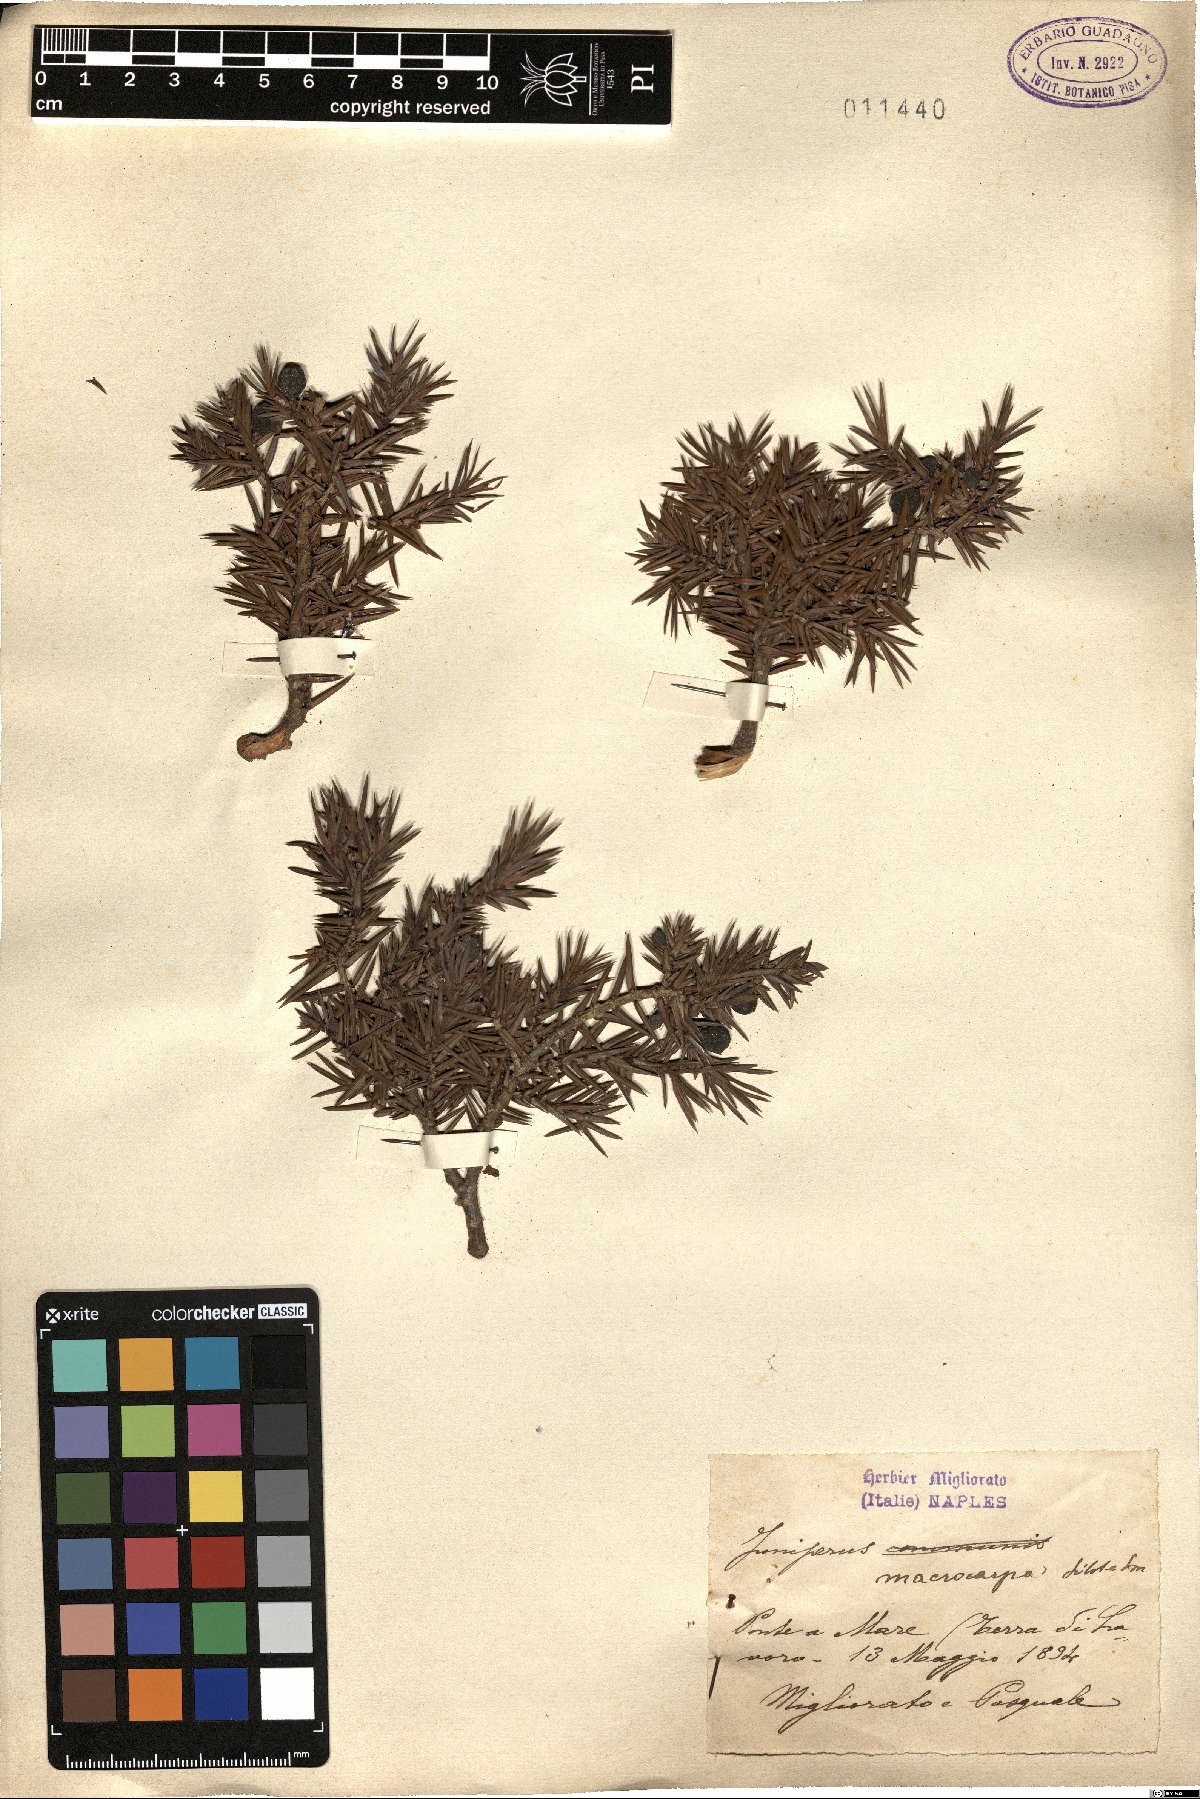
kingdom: Plantae
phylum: Tracheophyta
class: Pinopsida
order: Pinales
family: Cupressaceae
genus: Juniperus
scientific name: Juniperus oxycedrus
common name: Prickly juniper
